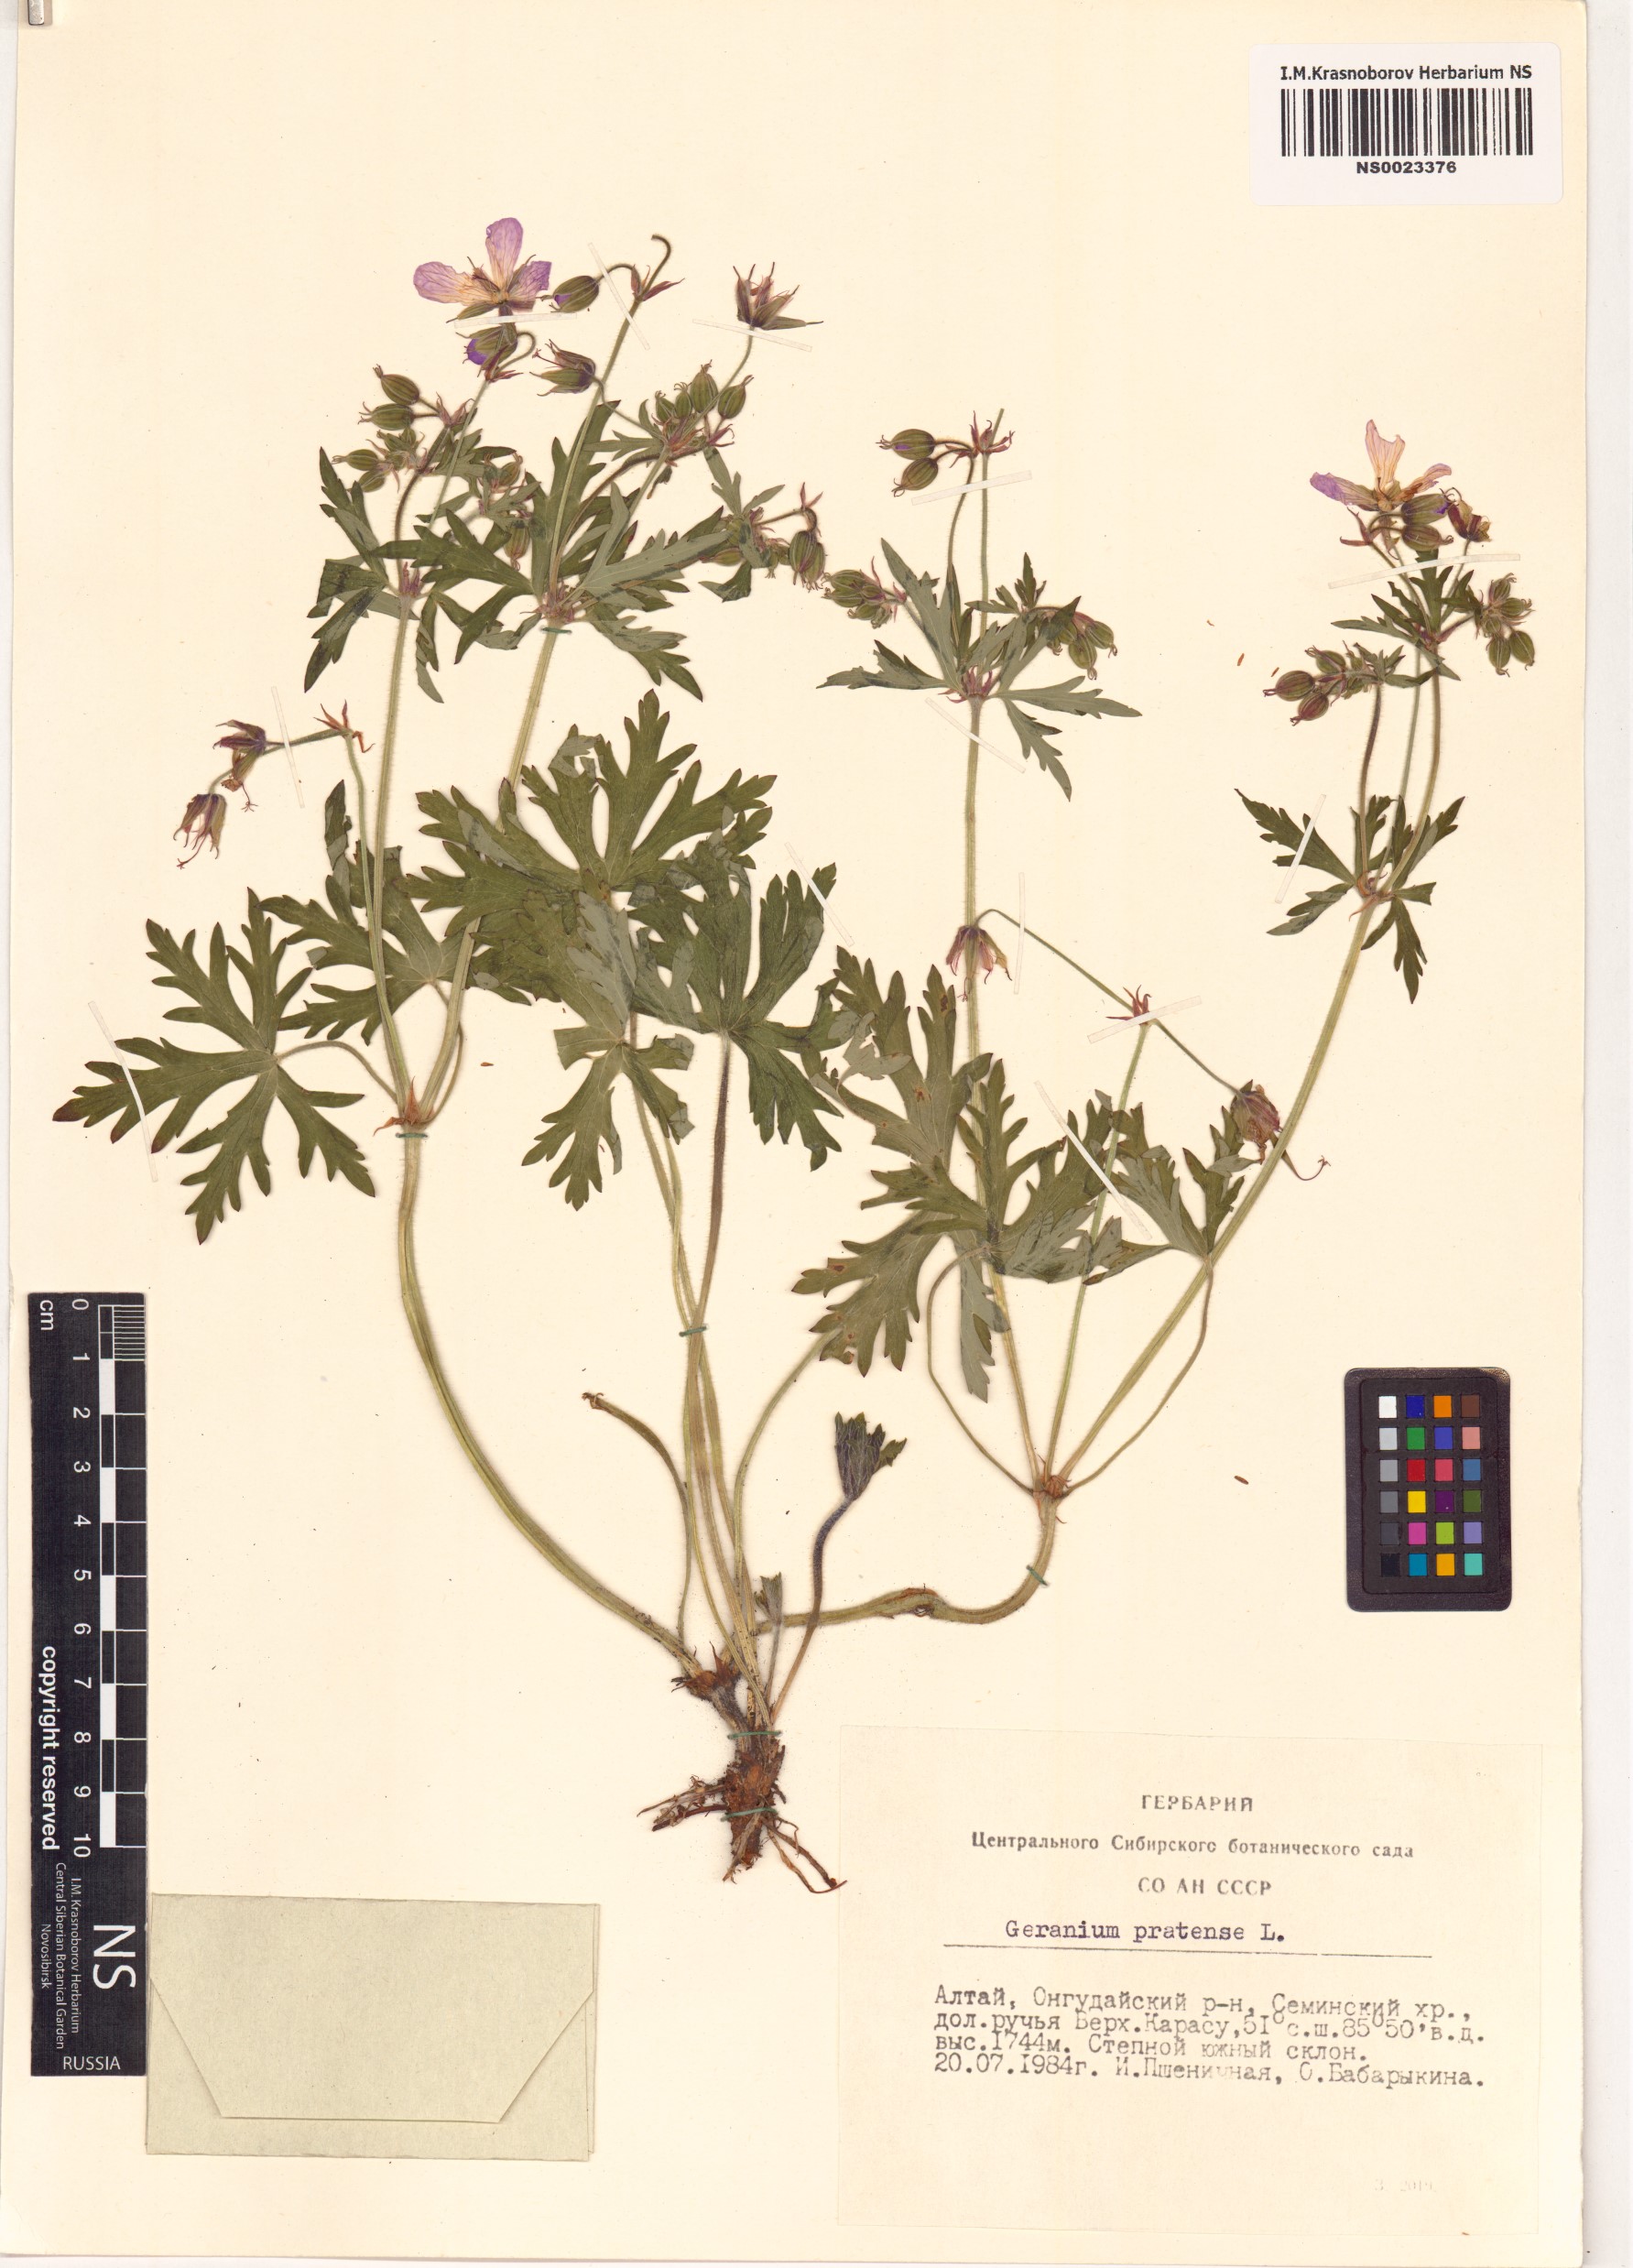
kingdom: Plantae
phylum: Tracheophyta
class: Magnoliopsida
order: Geraniales
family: Geraniaceae
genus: Geranium
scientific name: Geranium pratense
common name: Meadow crane's-bill
